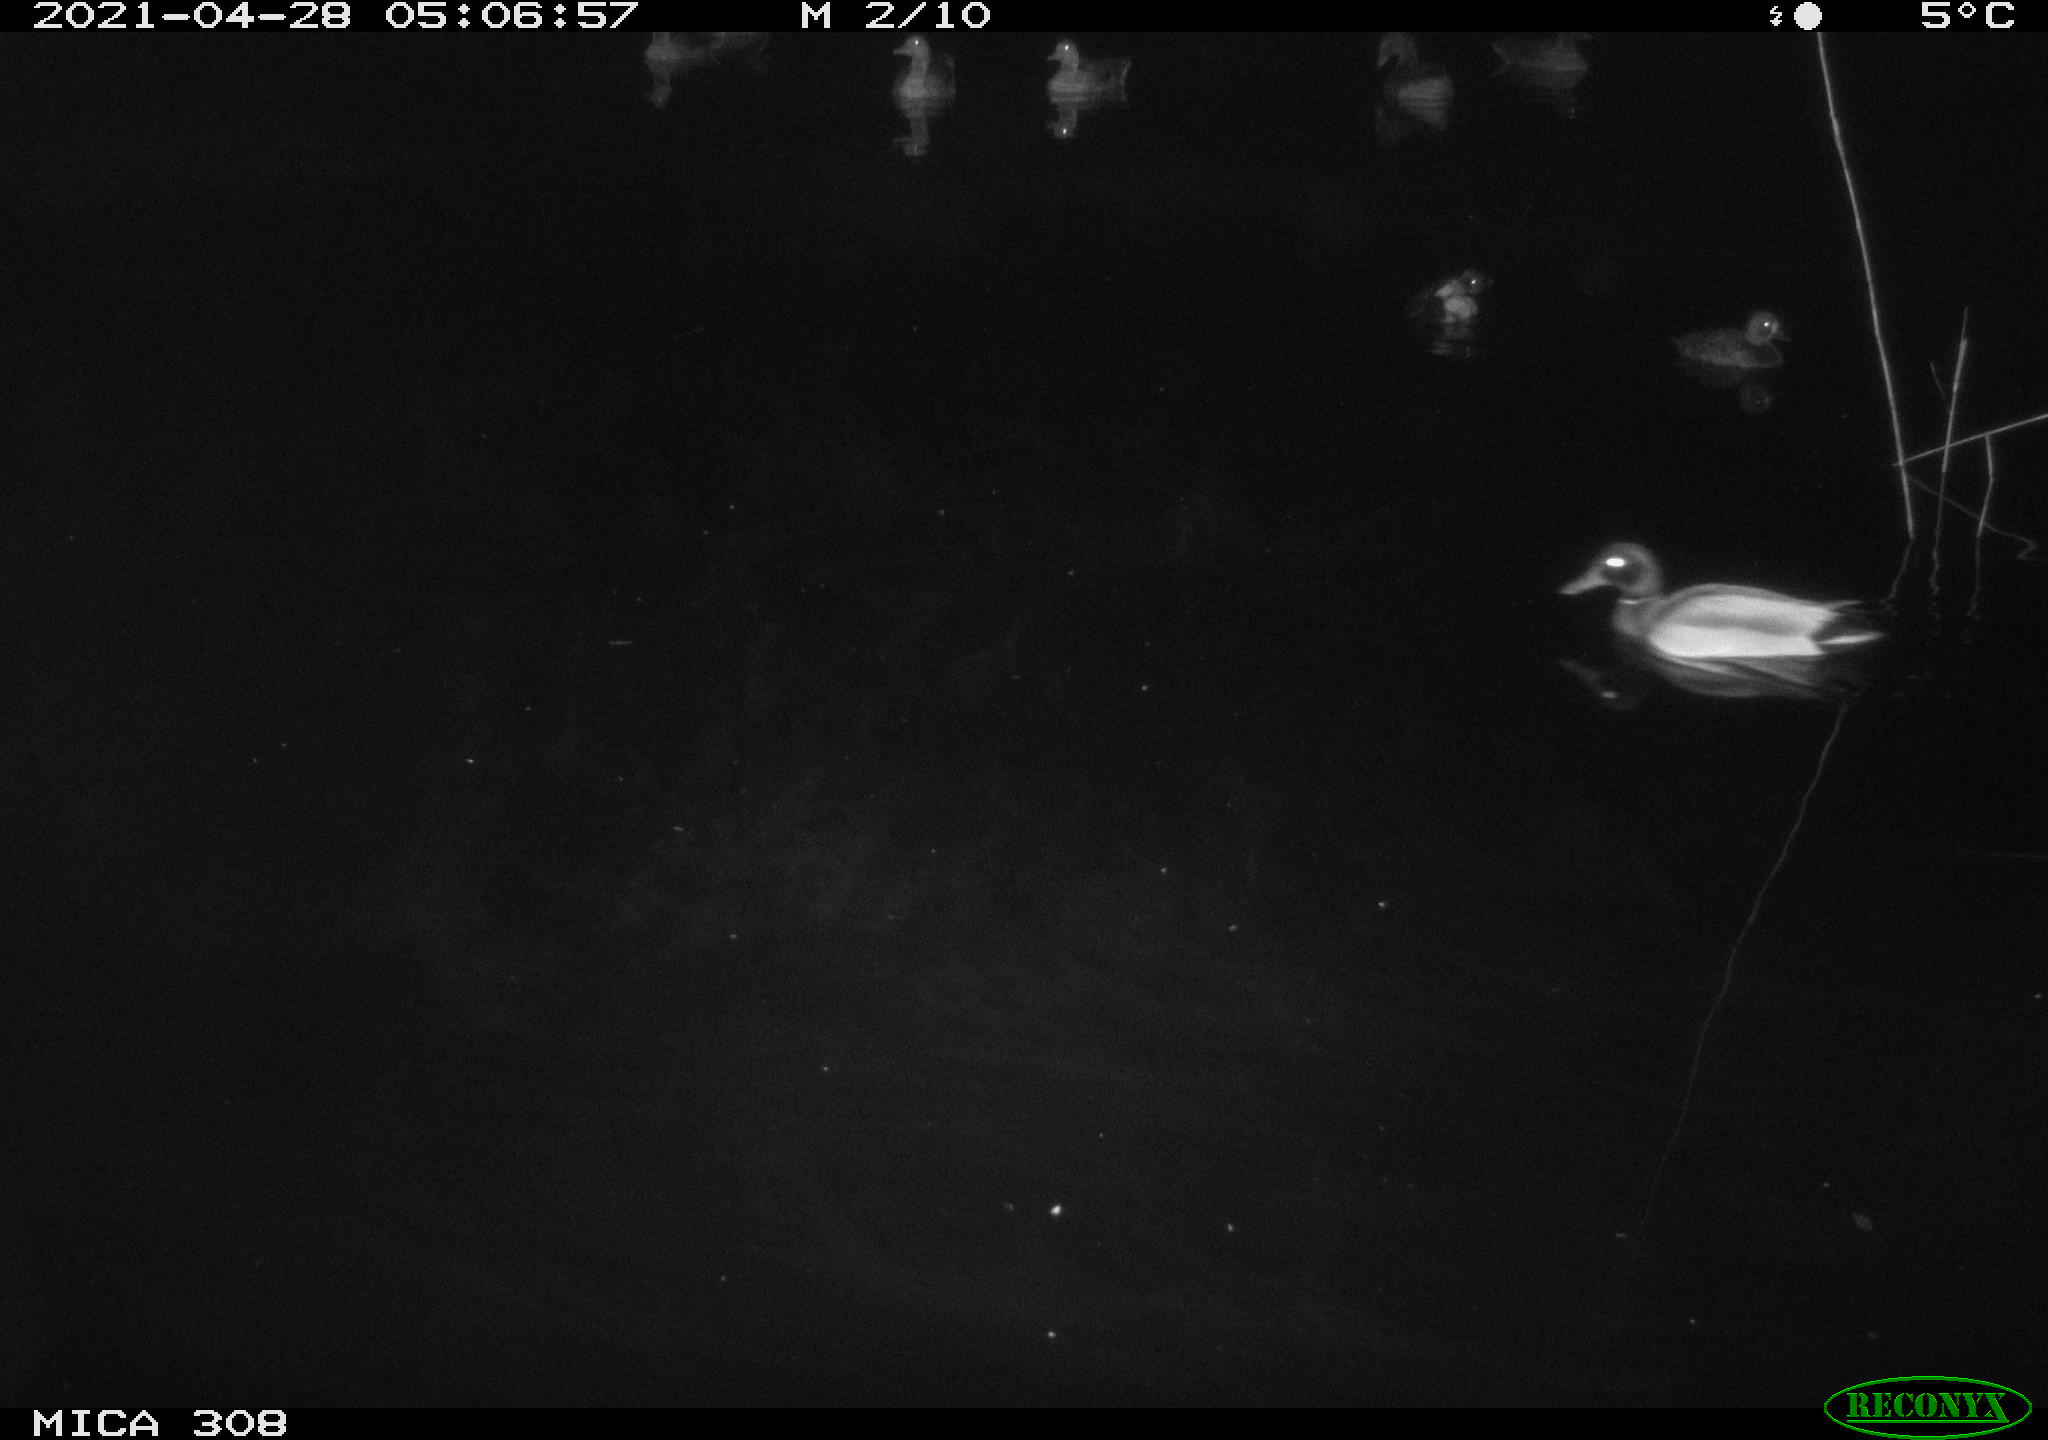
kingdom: Animalia
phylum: Chordata
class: Aves
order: Anseriformes
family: Anatidae
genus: Aythya
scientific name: Aythya fuligula
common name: Tufted duck
